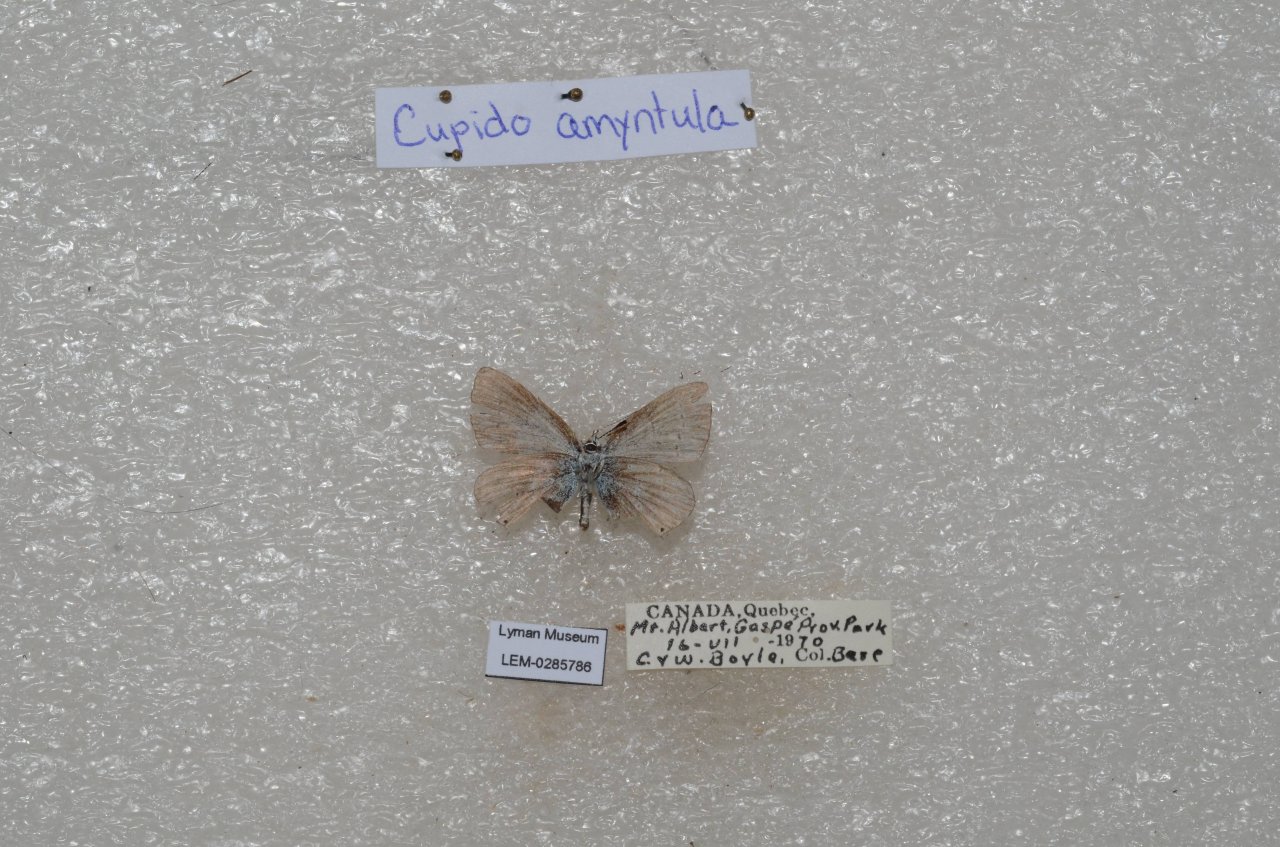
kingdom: Animalia
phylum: Arthropoda
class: Insecta
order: Lepidoptera
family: Lycaenidae
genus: Elkalyce
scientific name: Elkalyce amyntula
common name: Western Tailed-Blue
